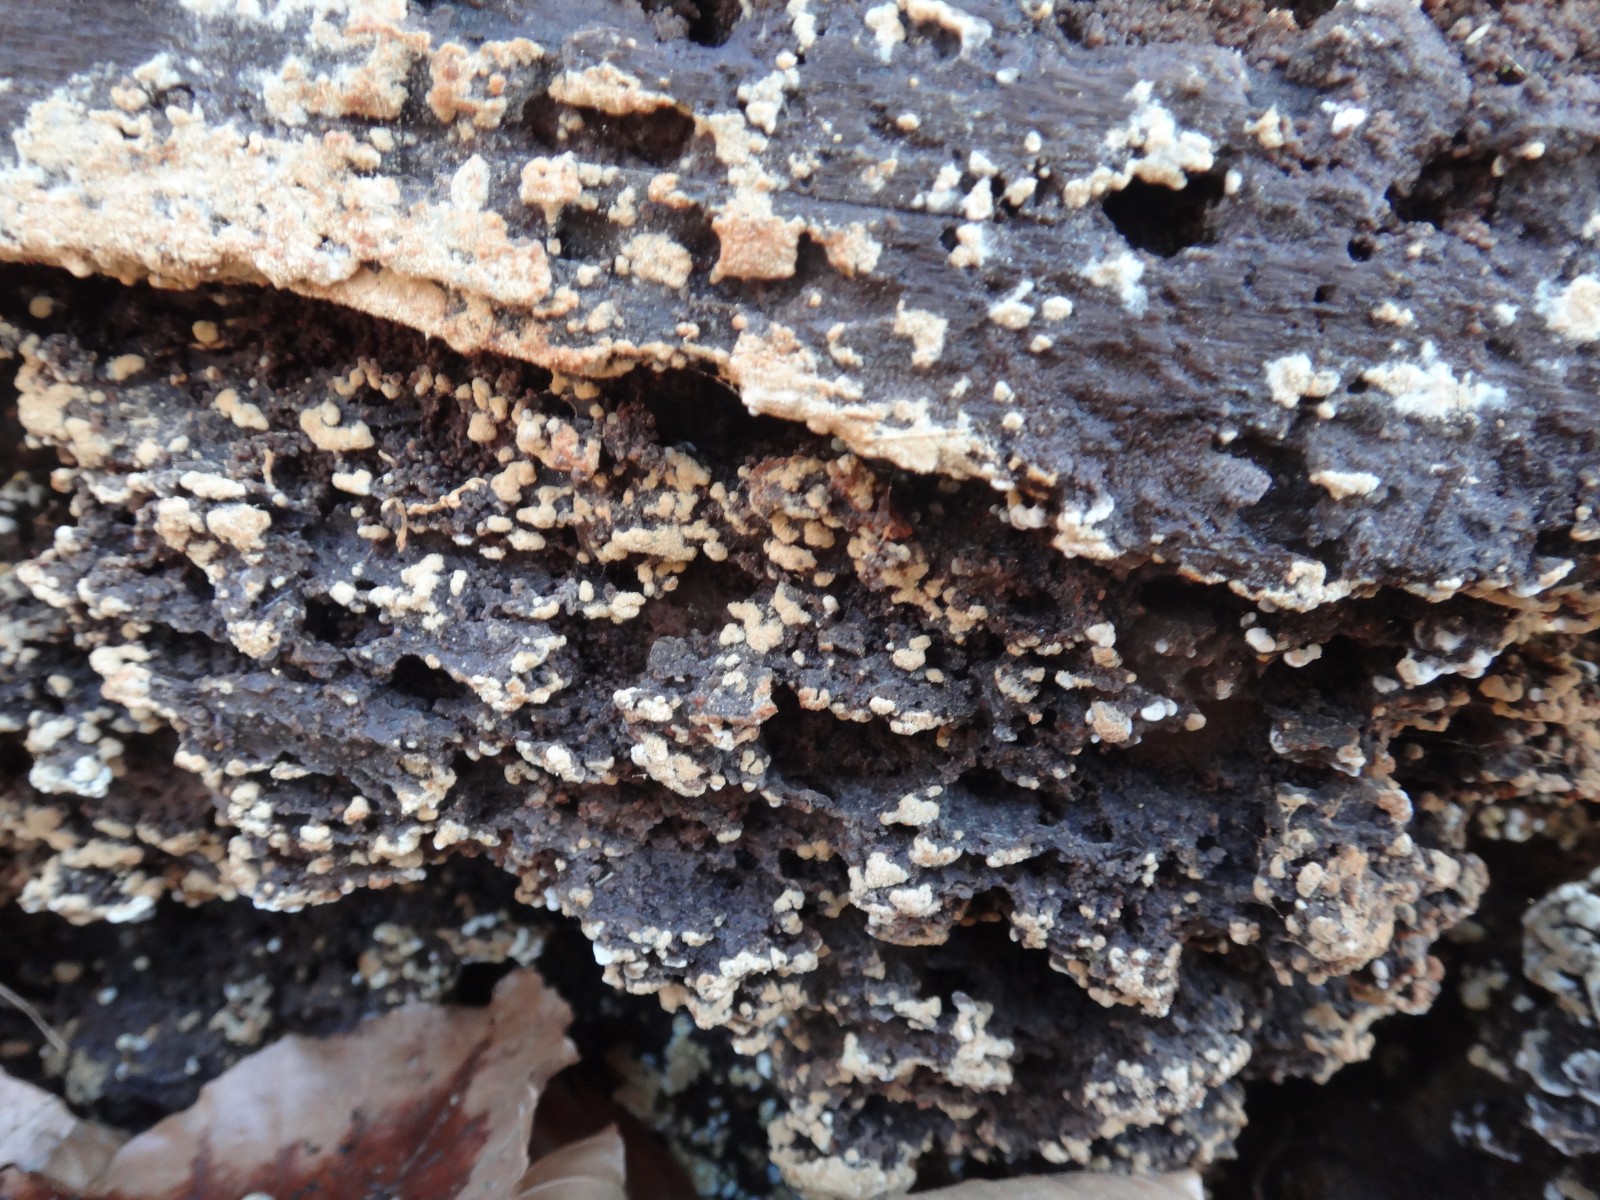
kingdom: Fungi
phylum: Basidiomycota
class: Agaricomycetes
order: Cantharellales
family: Botryobasidiaceae
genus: Botryobasidium
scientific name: Botryobasidium aureum
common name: gylden spindhinde
